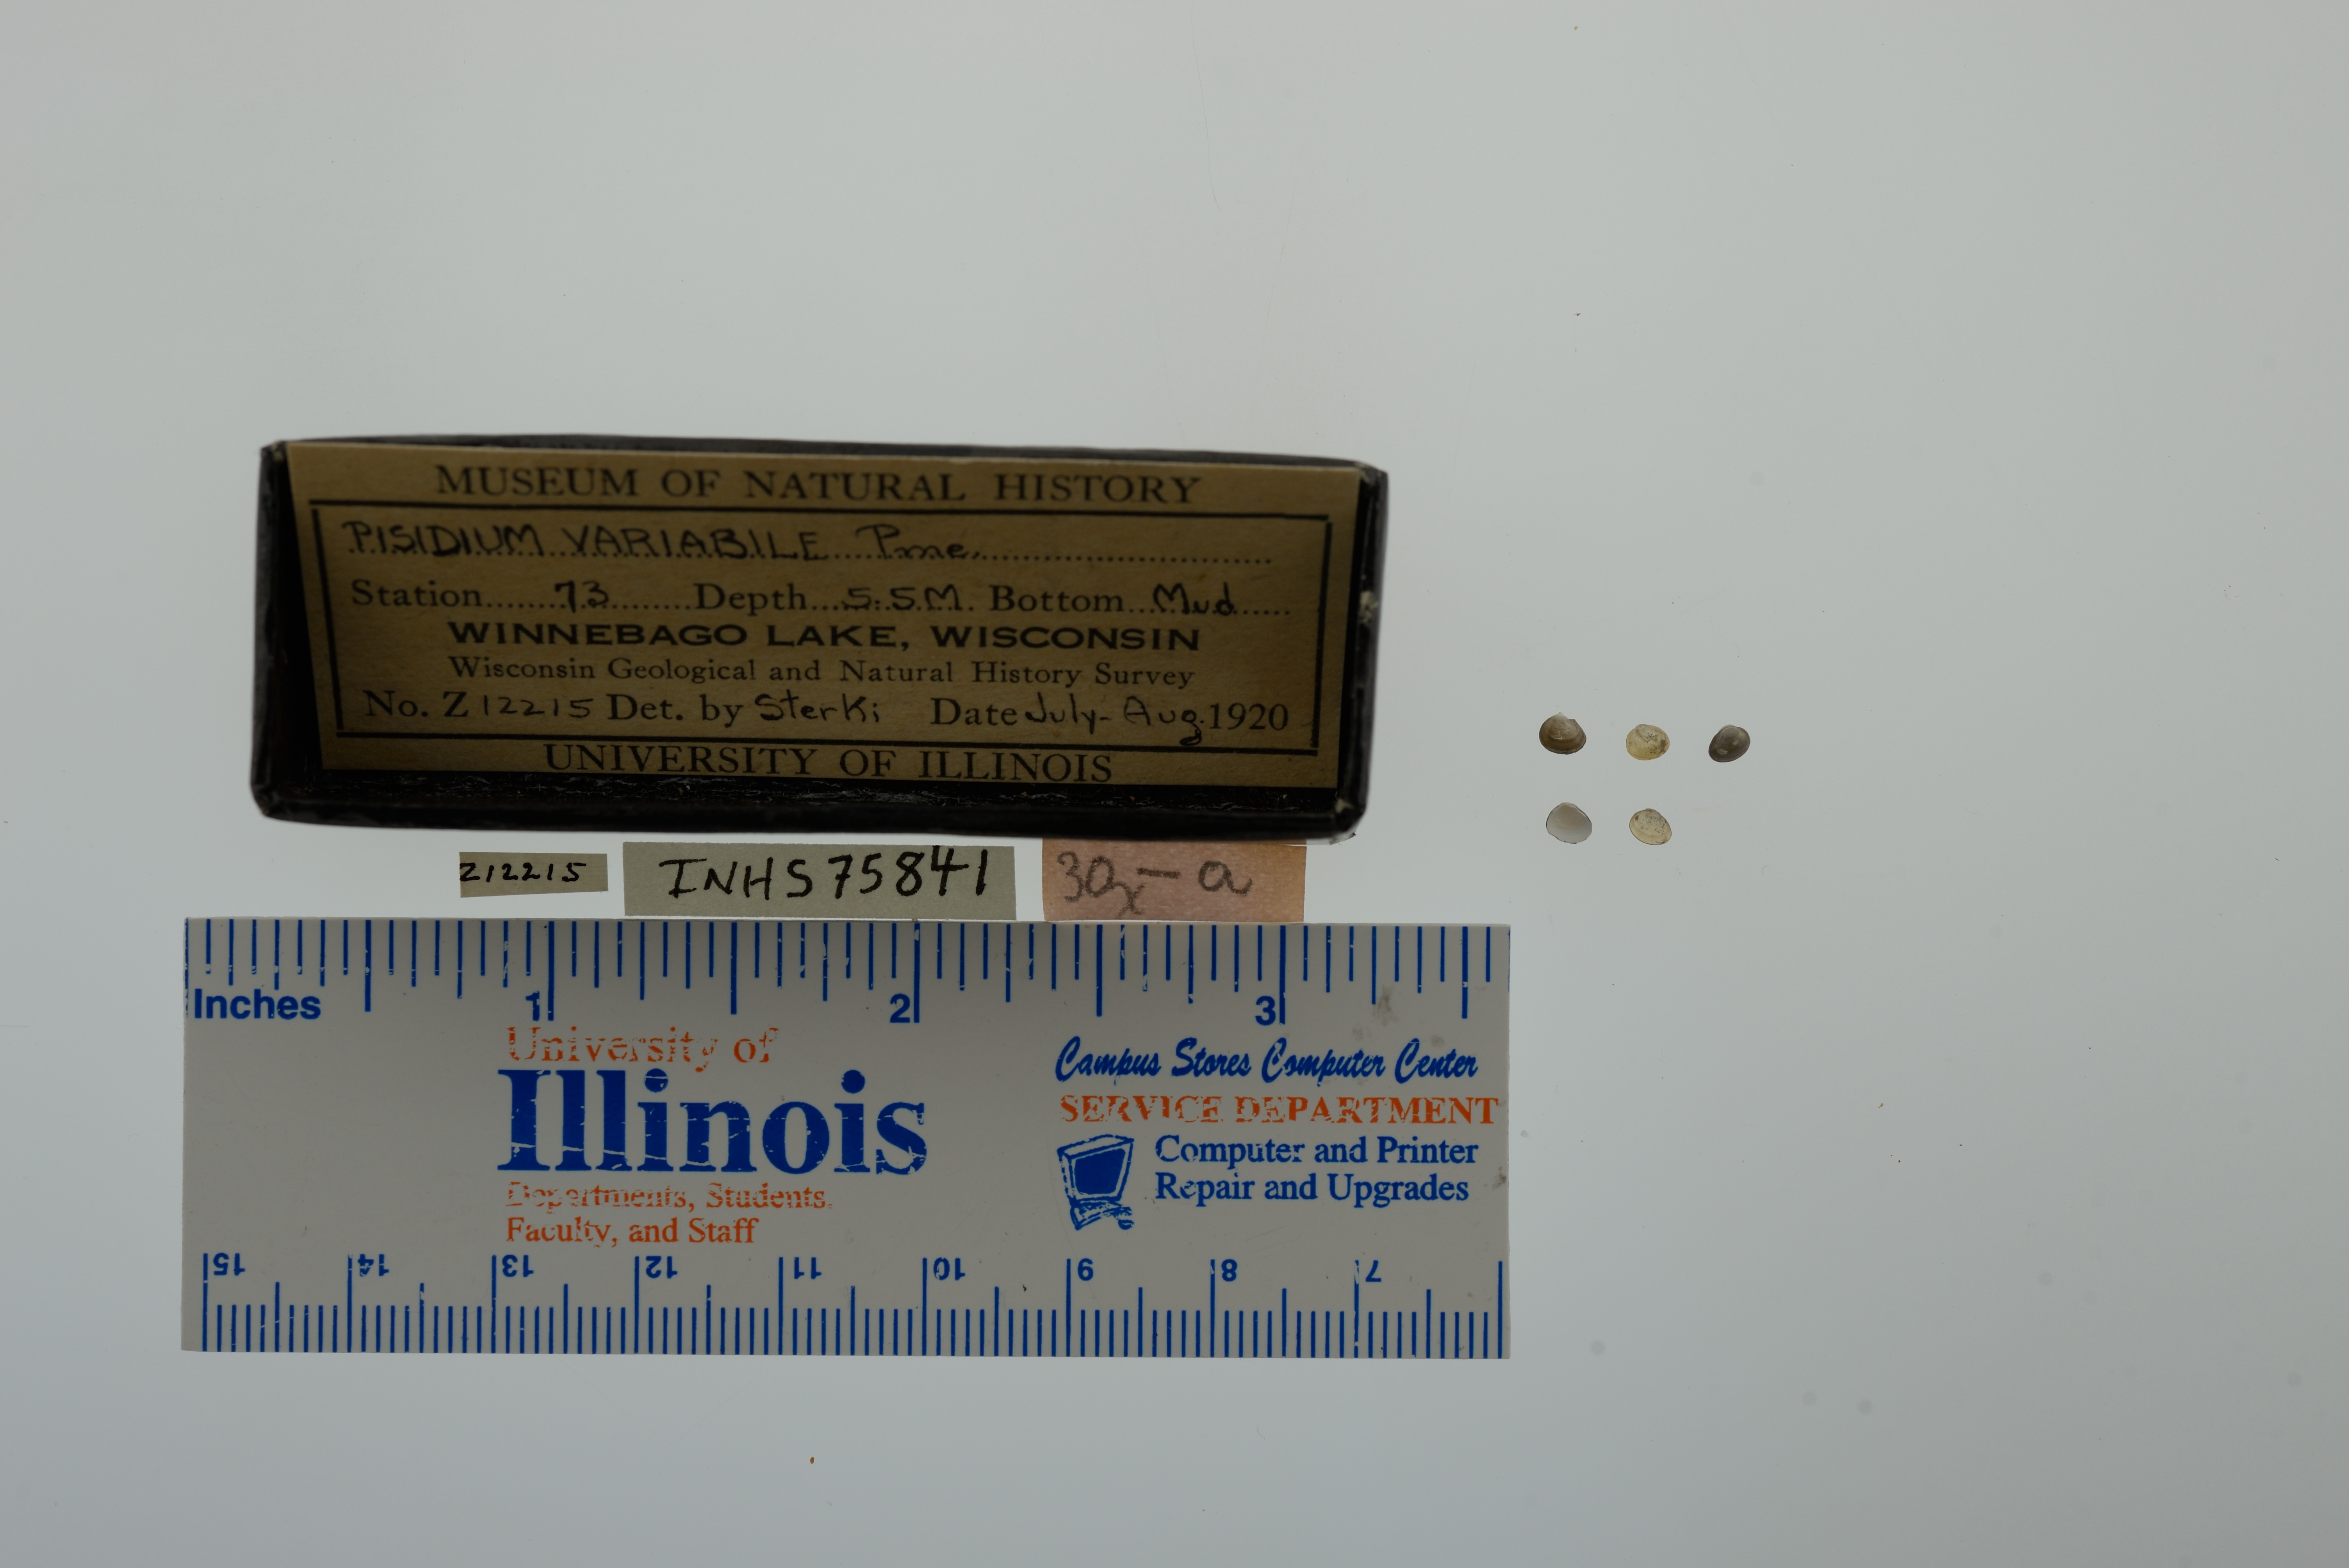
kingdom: Animalia
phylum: Mollusca
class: Bivalvia
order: Sphaeriida
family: Sphaeriidae
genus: Euglesa
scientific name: Euglesa variabilis
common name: Triangular peaclam
